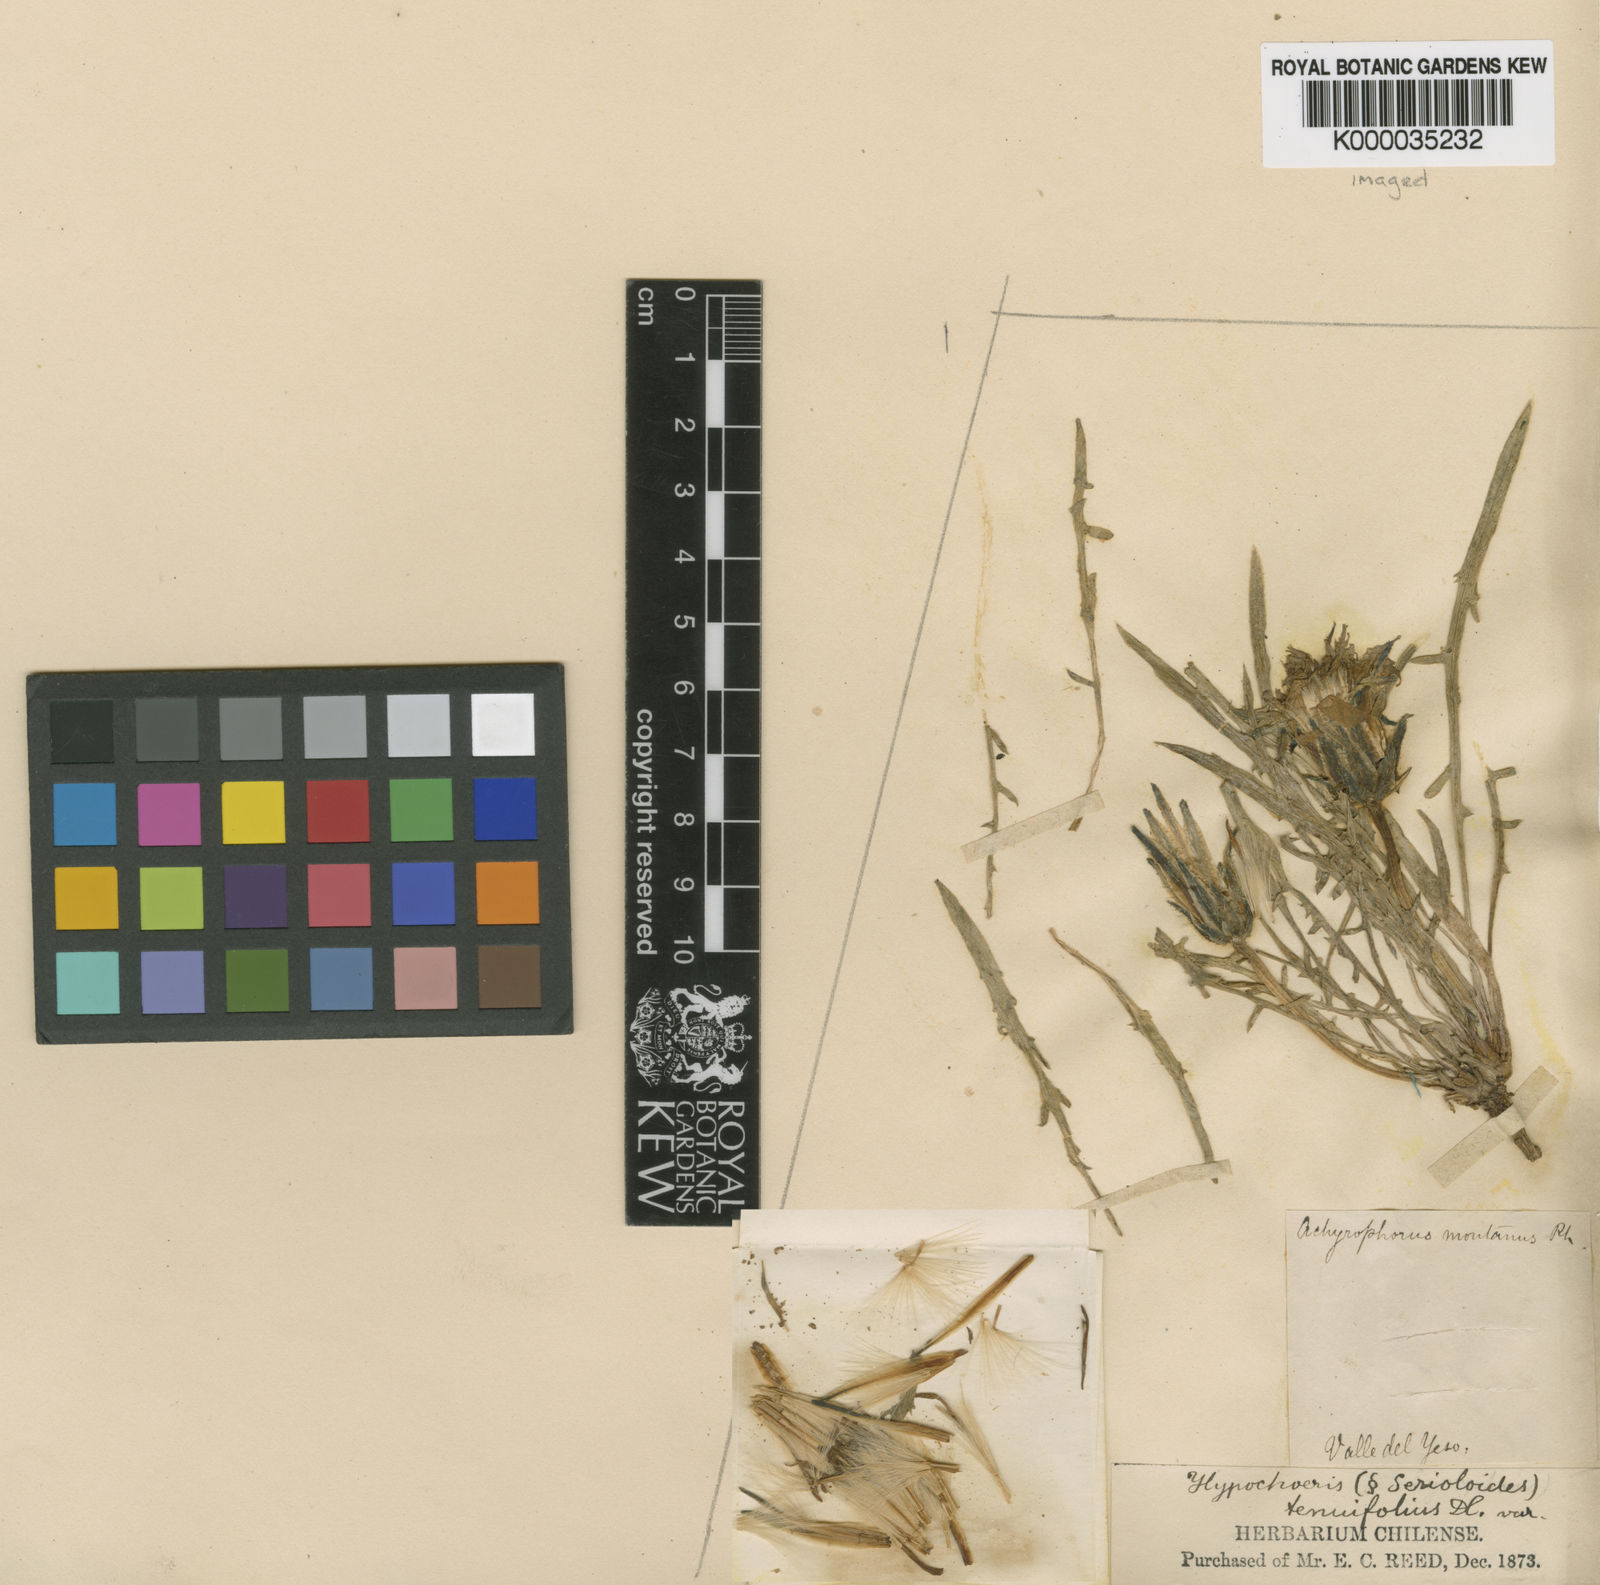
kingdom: Plantae
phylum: Tracheophyta
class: Magnoliopsida
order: Asterales
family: Asteraceae
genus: Hypochaeris
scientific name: Hypochaeris laciniata
